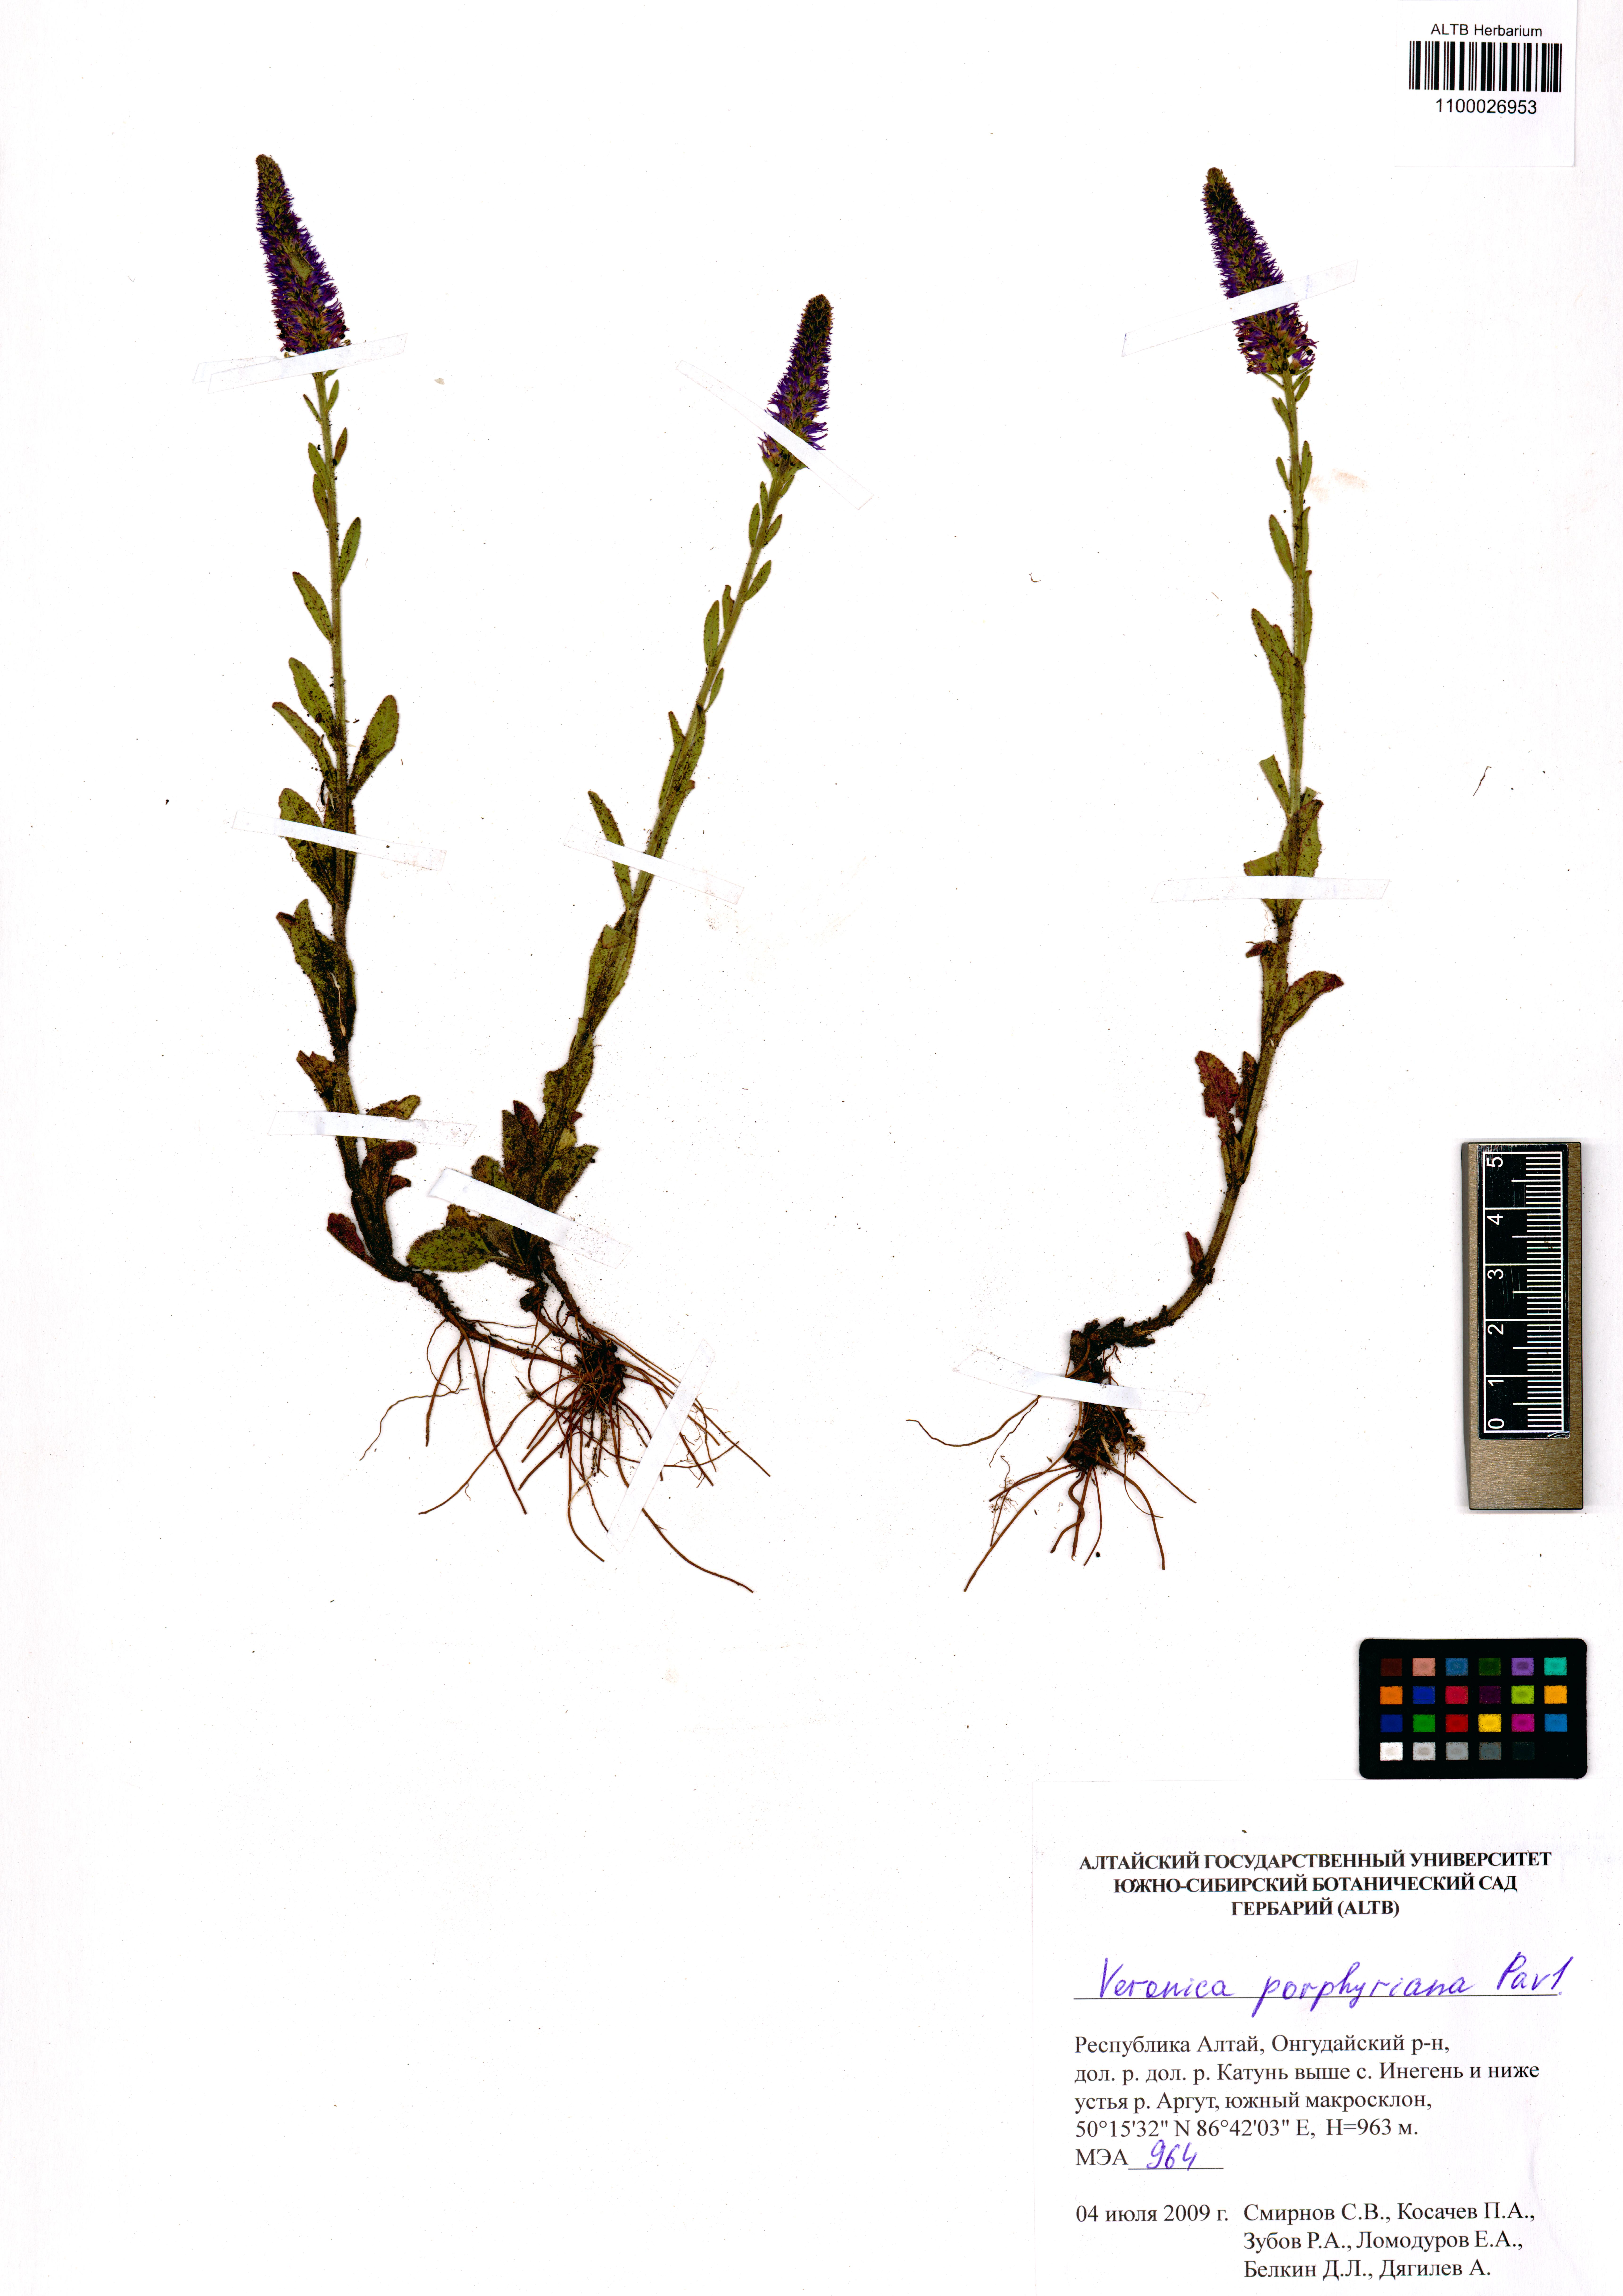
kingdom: Plantae
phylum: Tracheophyta
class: Magnoliopsida
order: Lamiales
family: Plantaginaceae
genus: Veronica
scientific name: Veronica porphyriana
